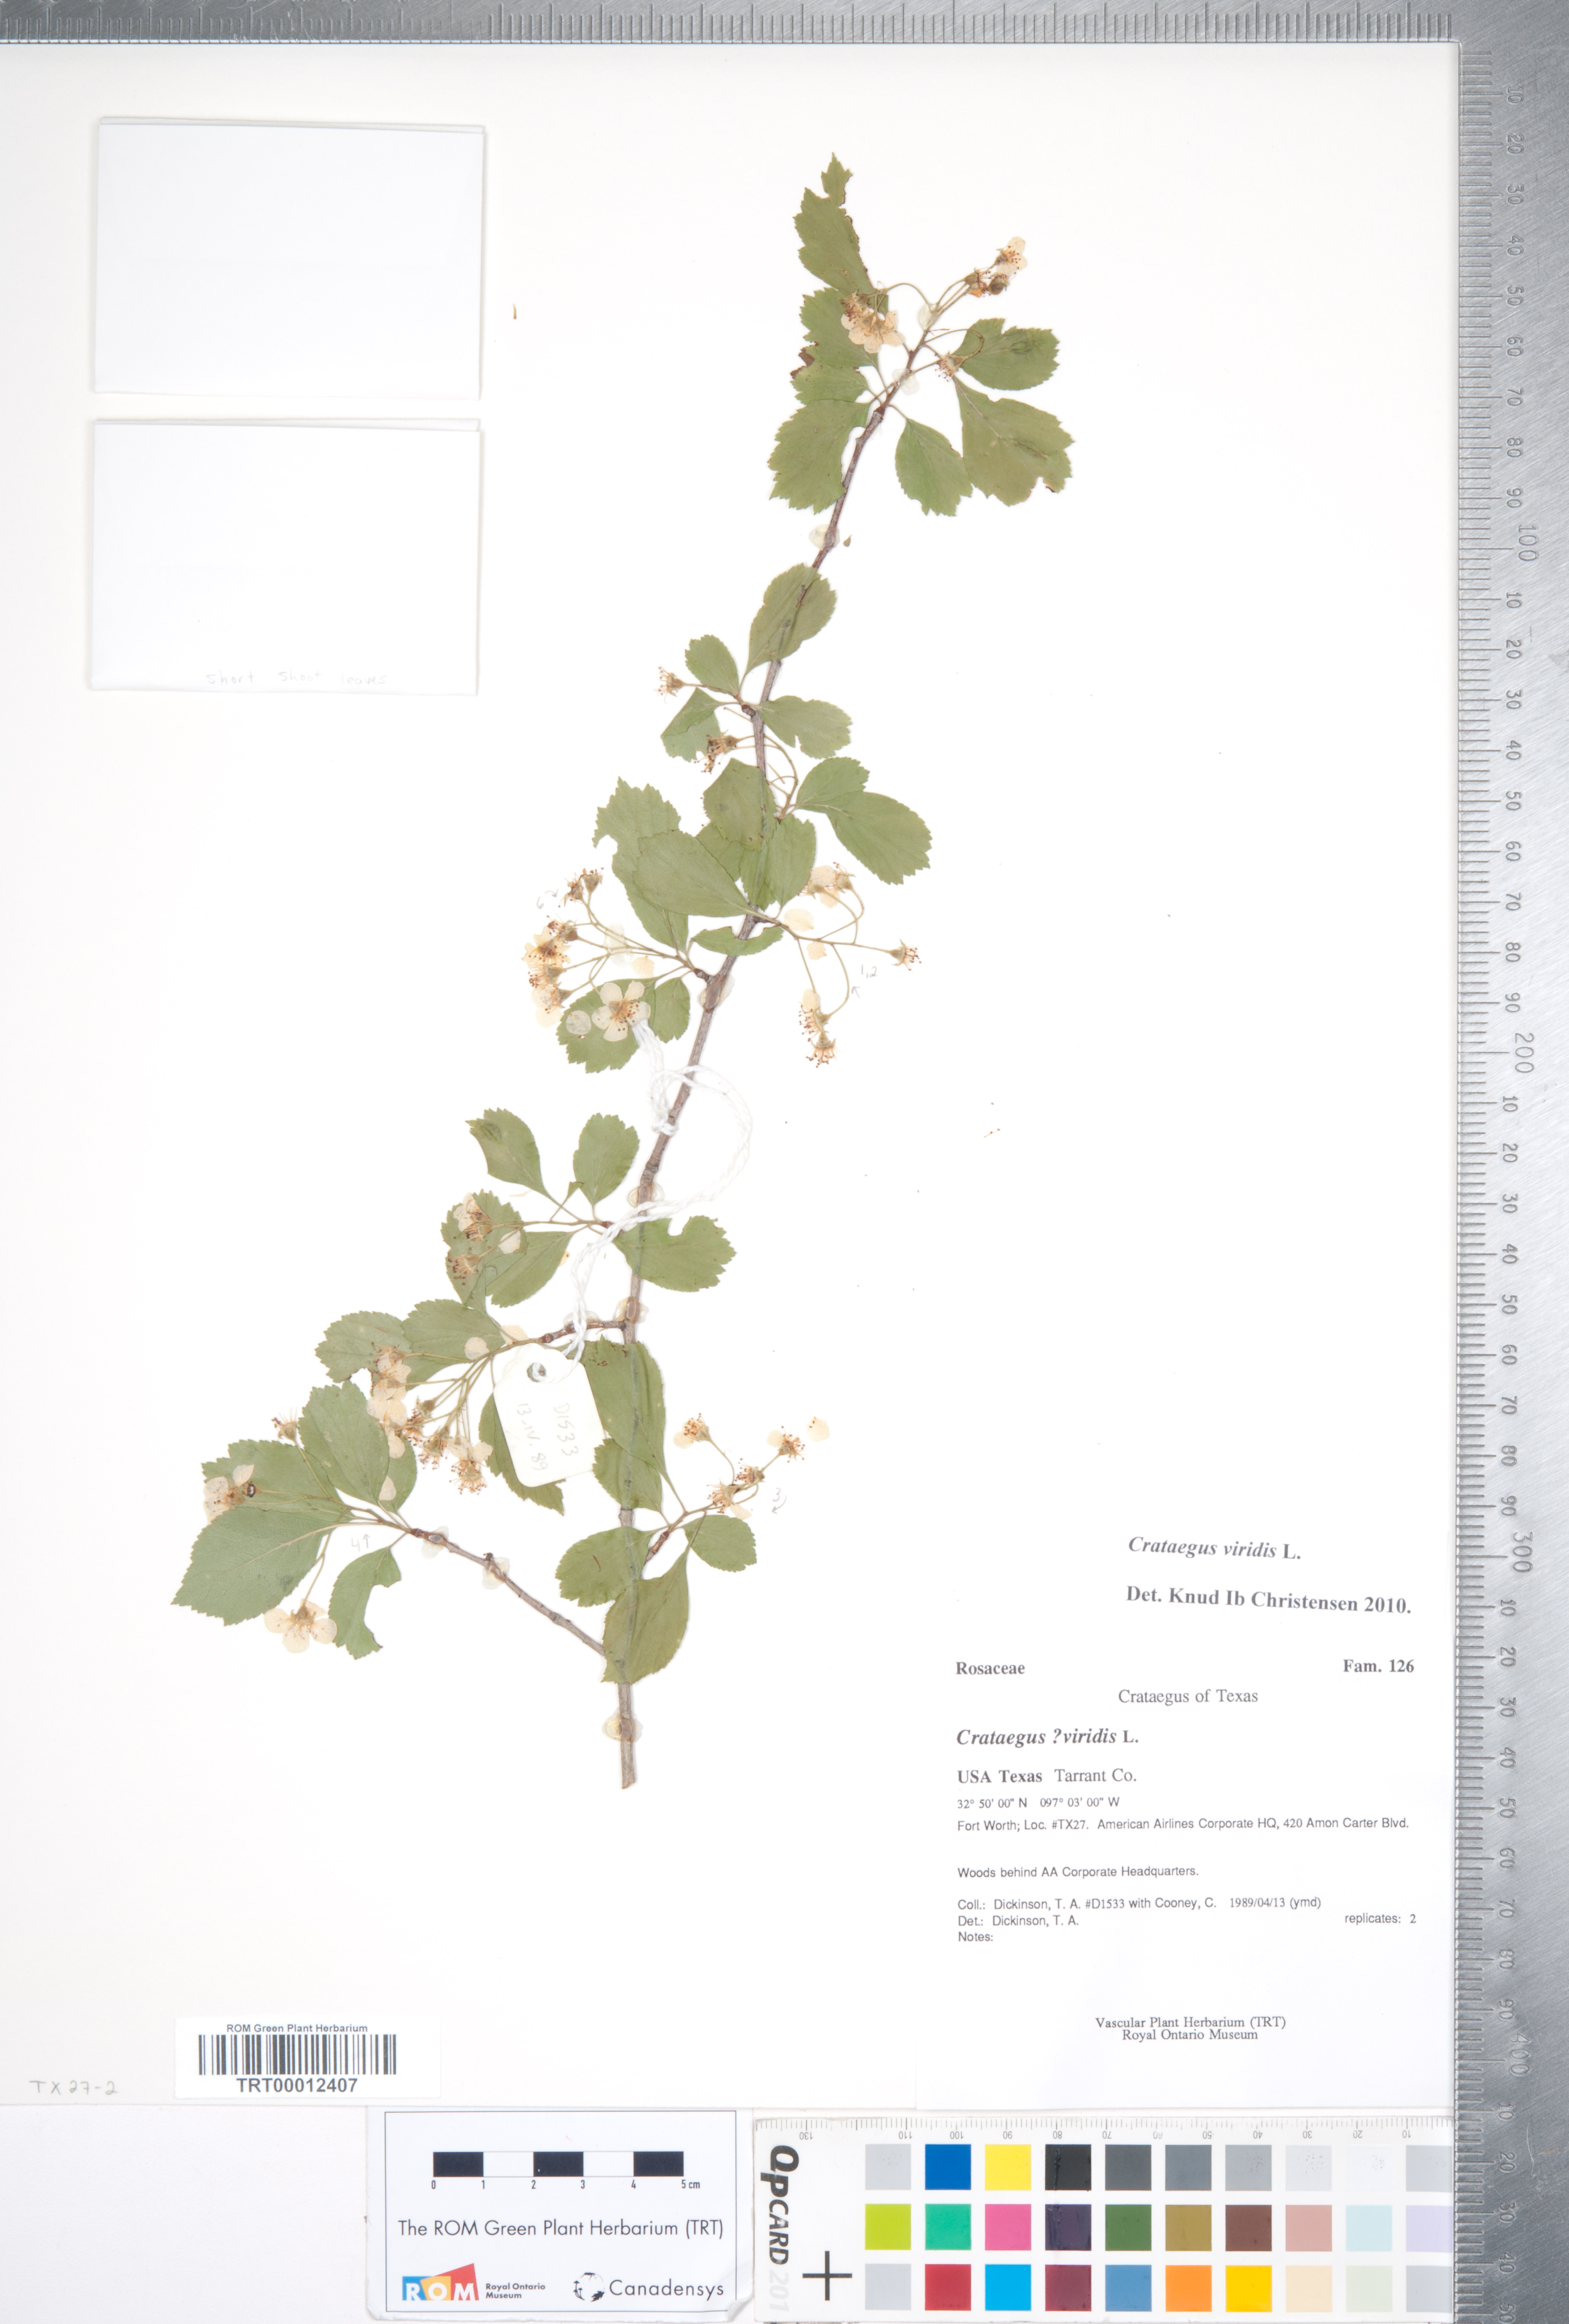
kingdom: Plantae
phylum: Tracheophyta
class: Magnoliopsida
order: Rosales
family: Rosaceae
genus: Crataegus
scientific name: Crataegus viridis
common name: Southernthorn
